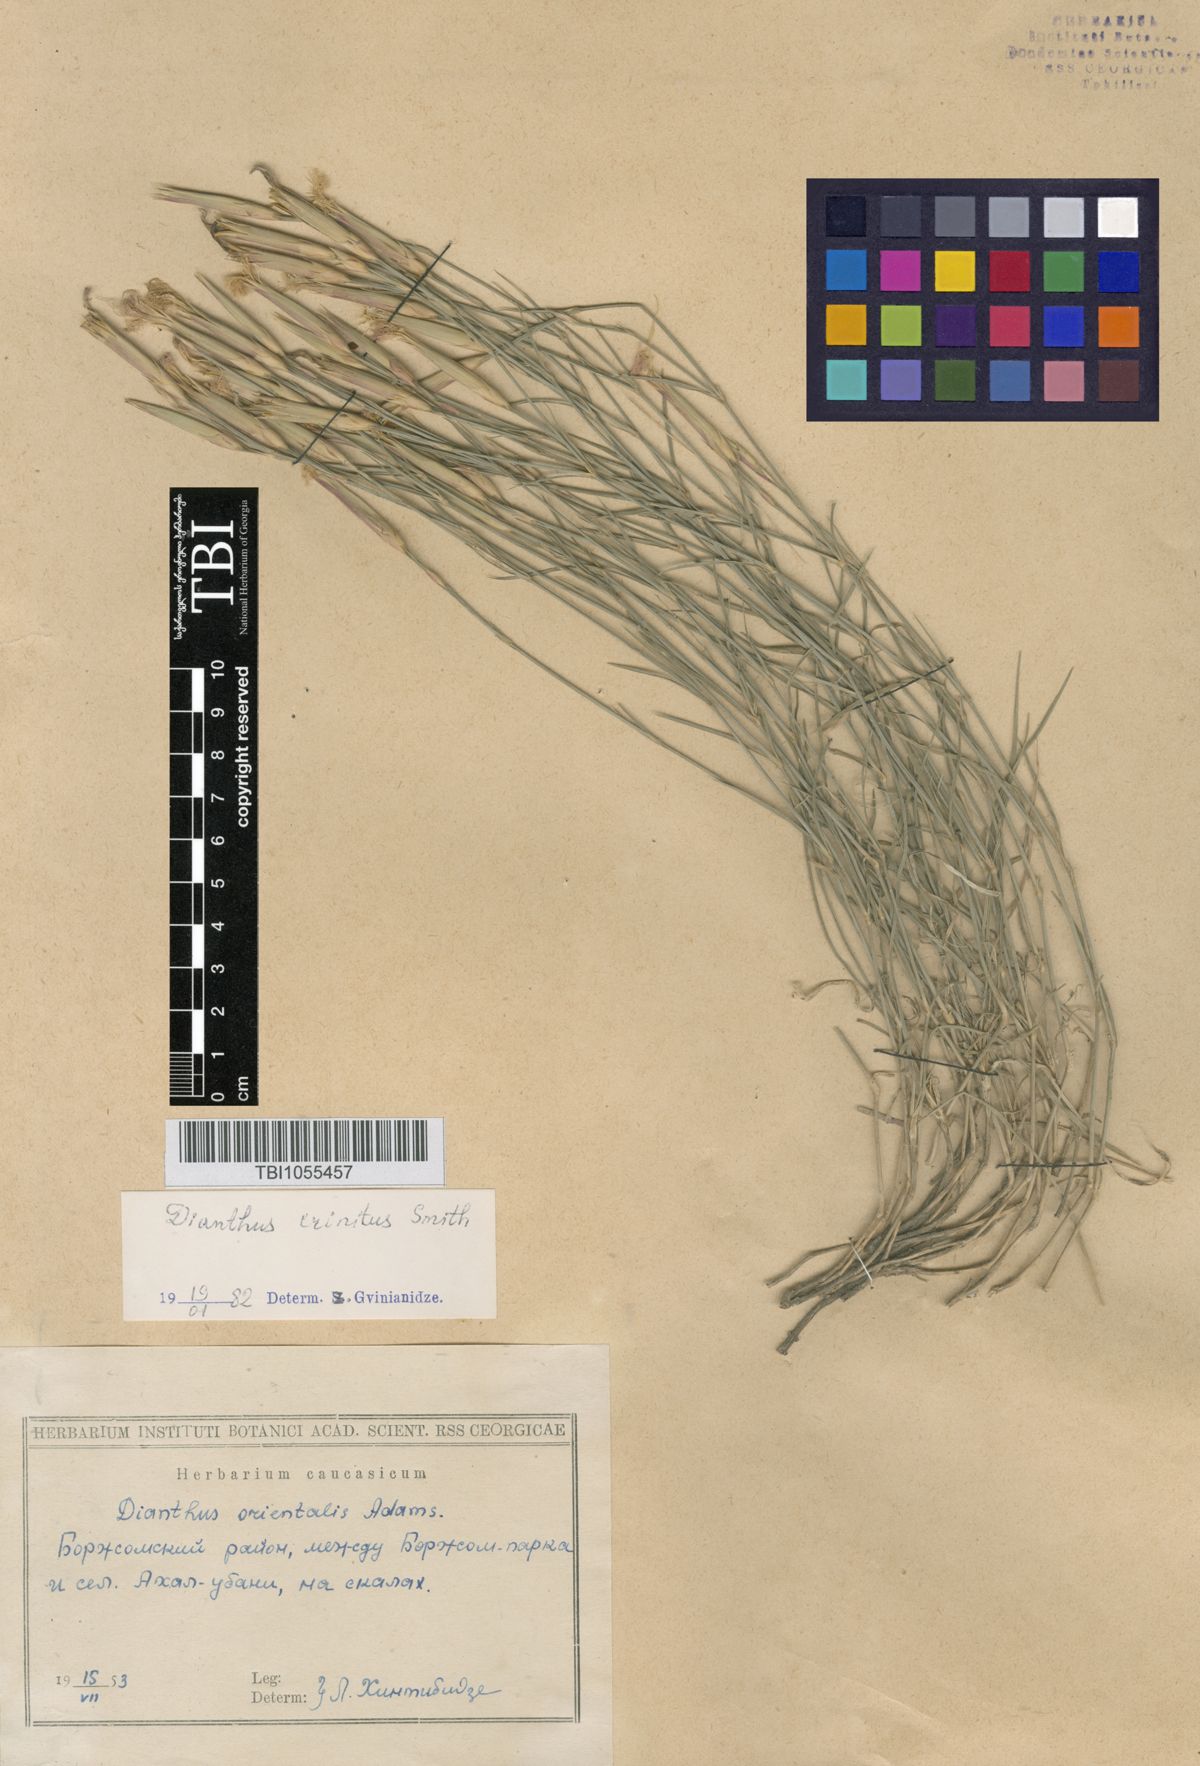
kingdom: Plantae
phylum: Tracheophyta
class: Magnoliopsida
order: Caryophyllales
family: Caryophyllaceae
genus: Dianthus
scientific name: Dianthus crinitus
